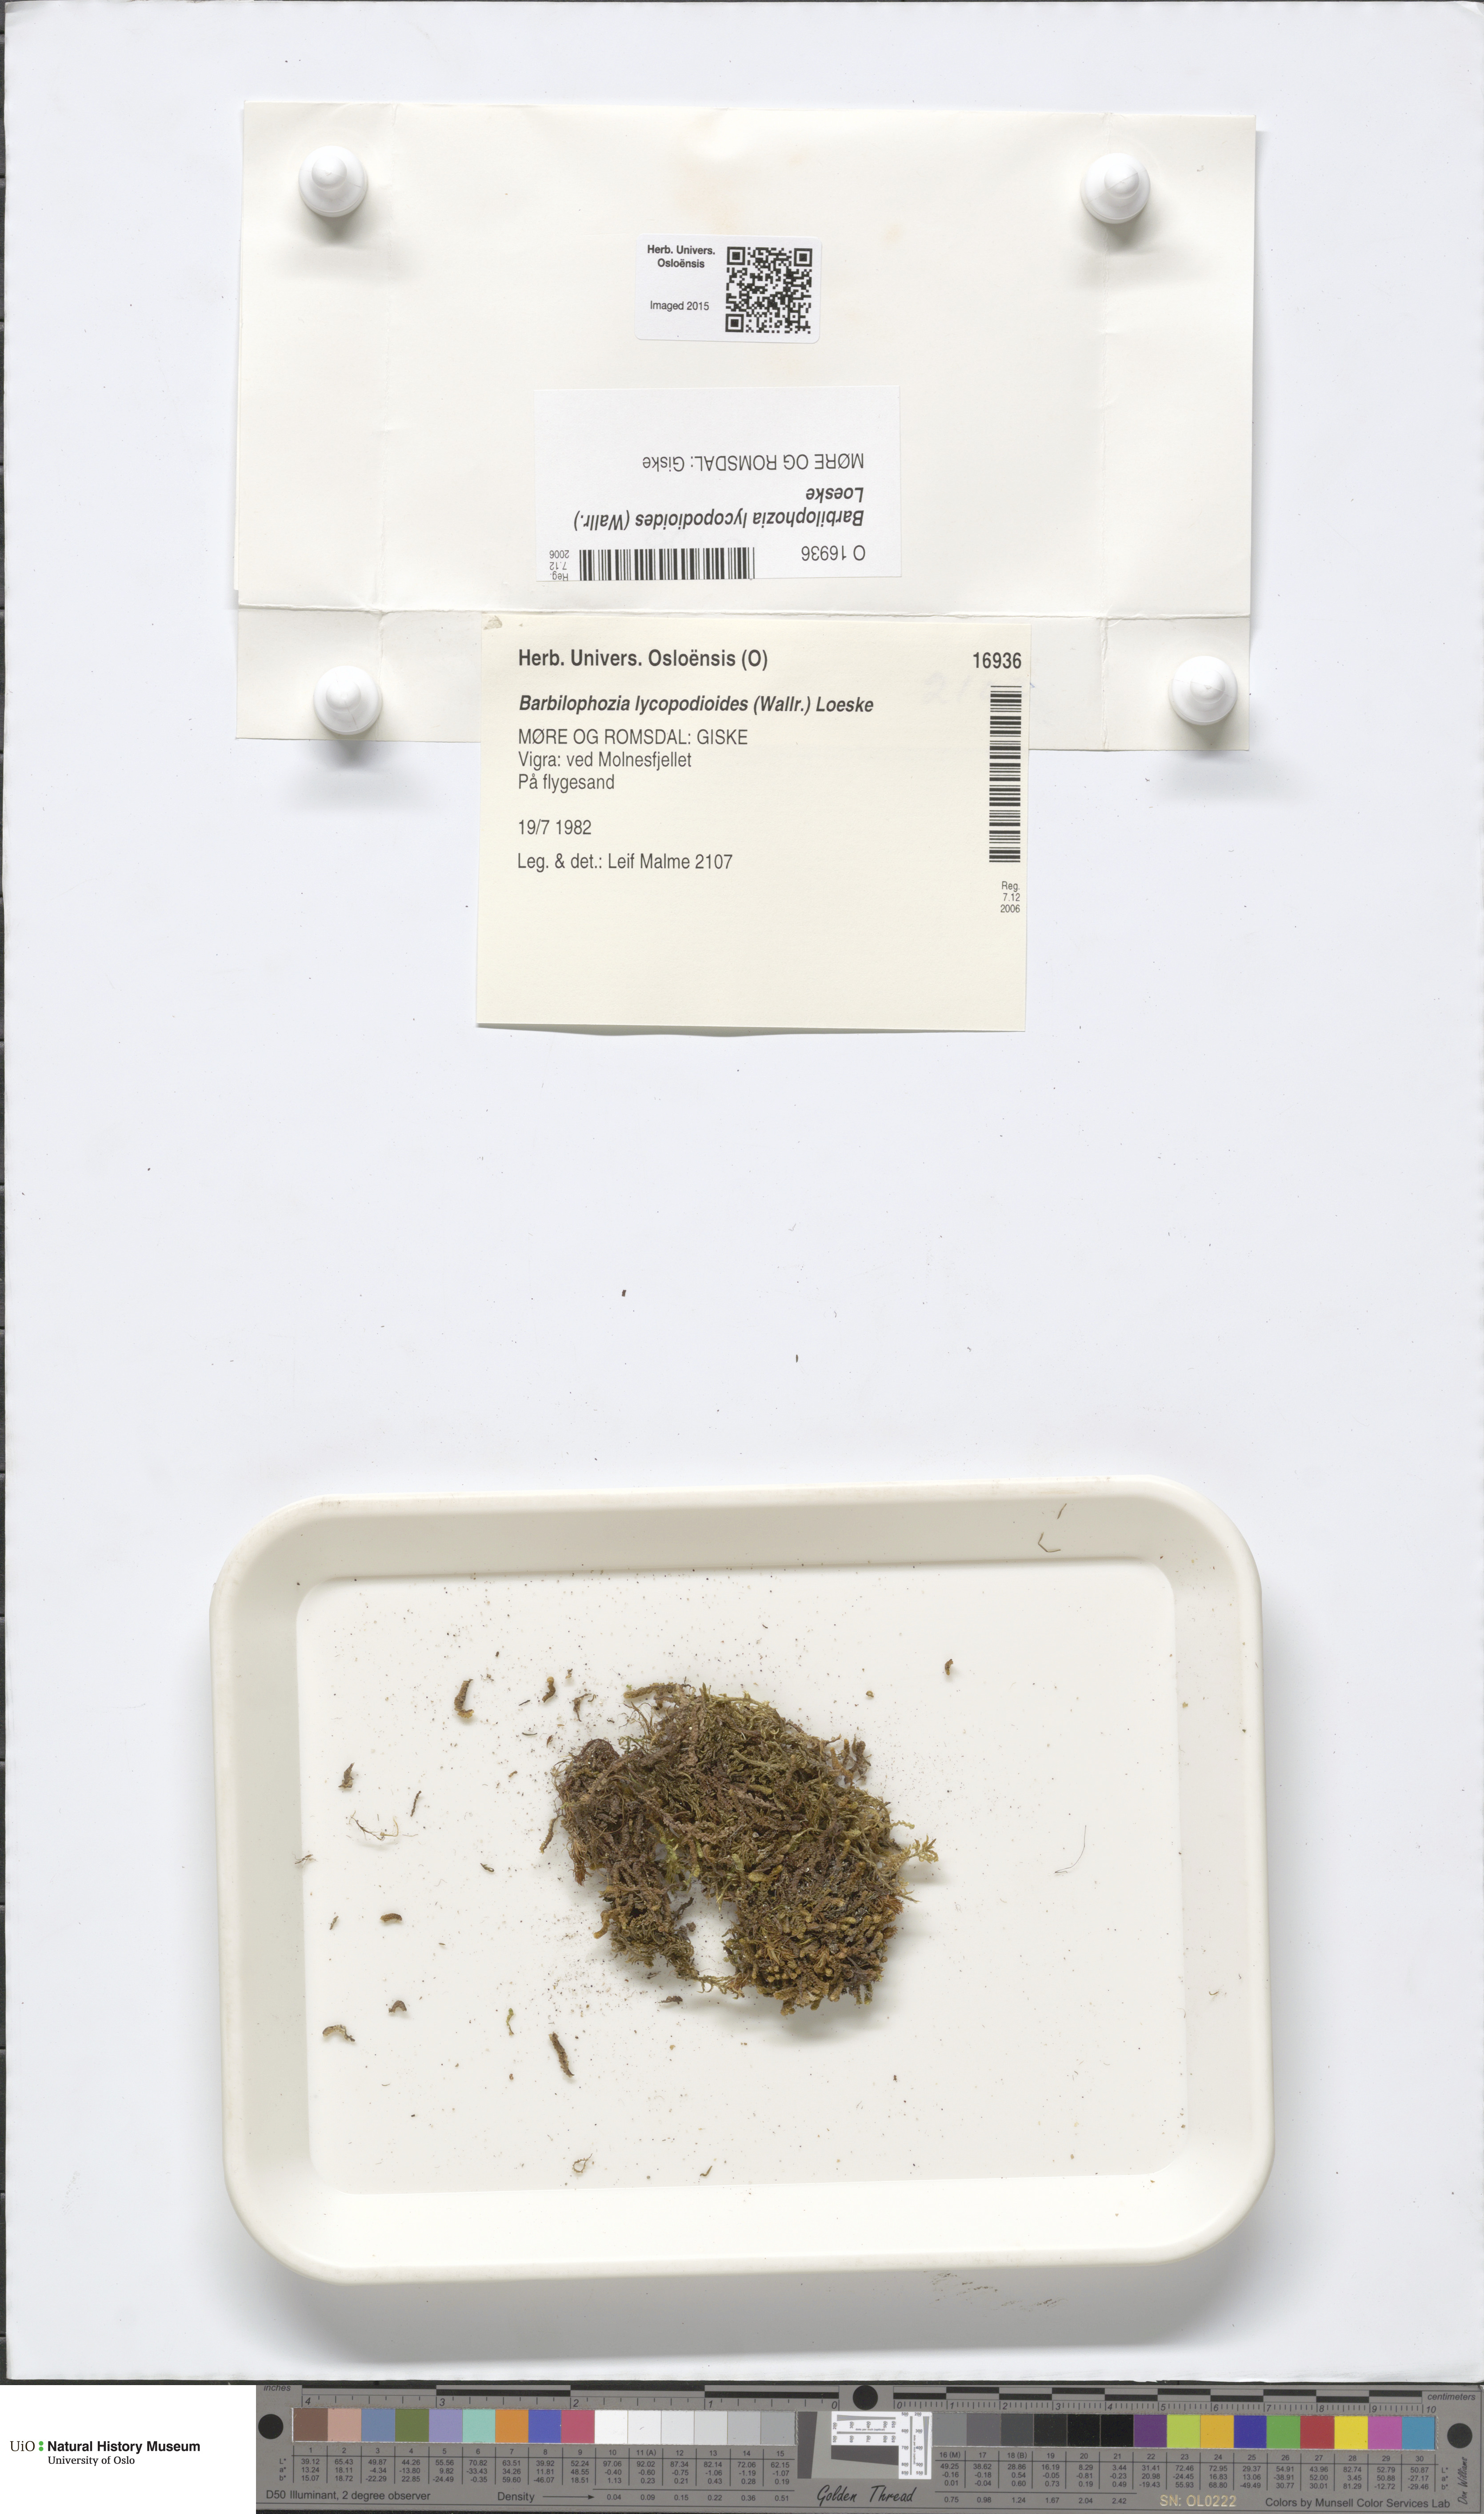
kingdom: Plantae
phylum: Marchantiophyta
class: Jungermanniopsida
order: Jungermanniales
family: Anastrophyllaceae
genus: Barbilophozia
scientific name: Barbilophozia lycopodioides
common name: Greater pawwort
